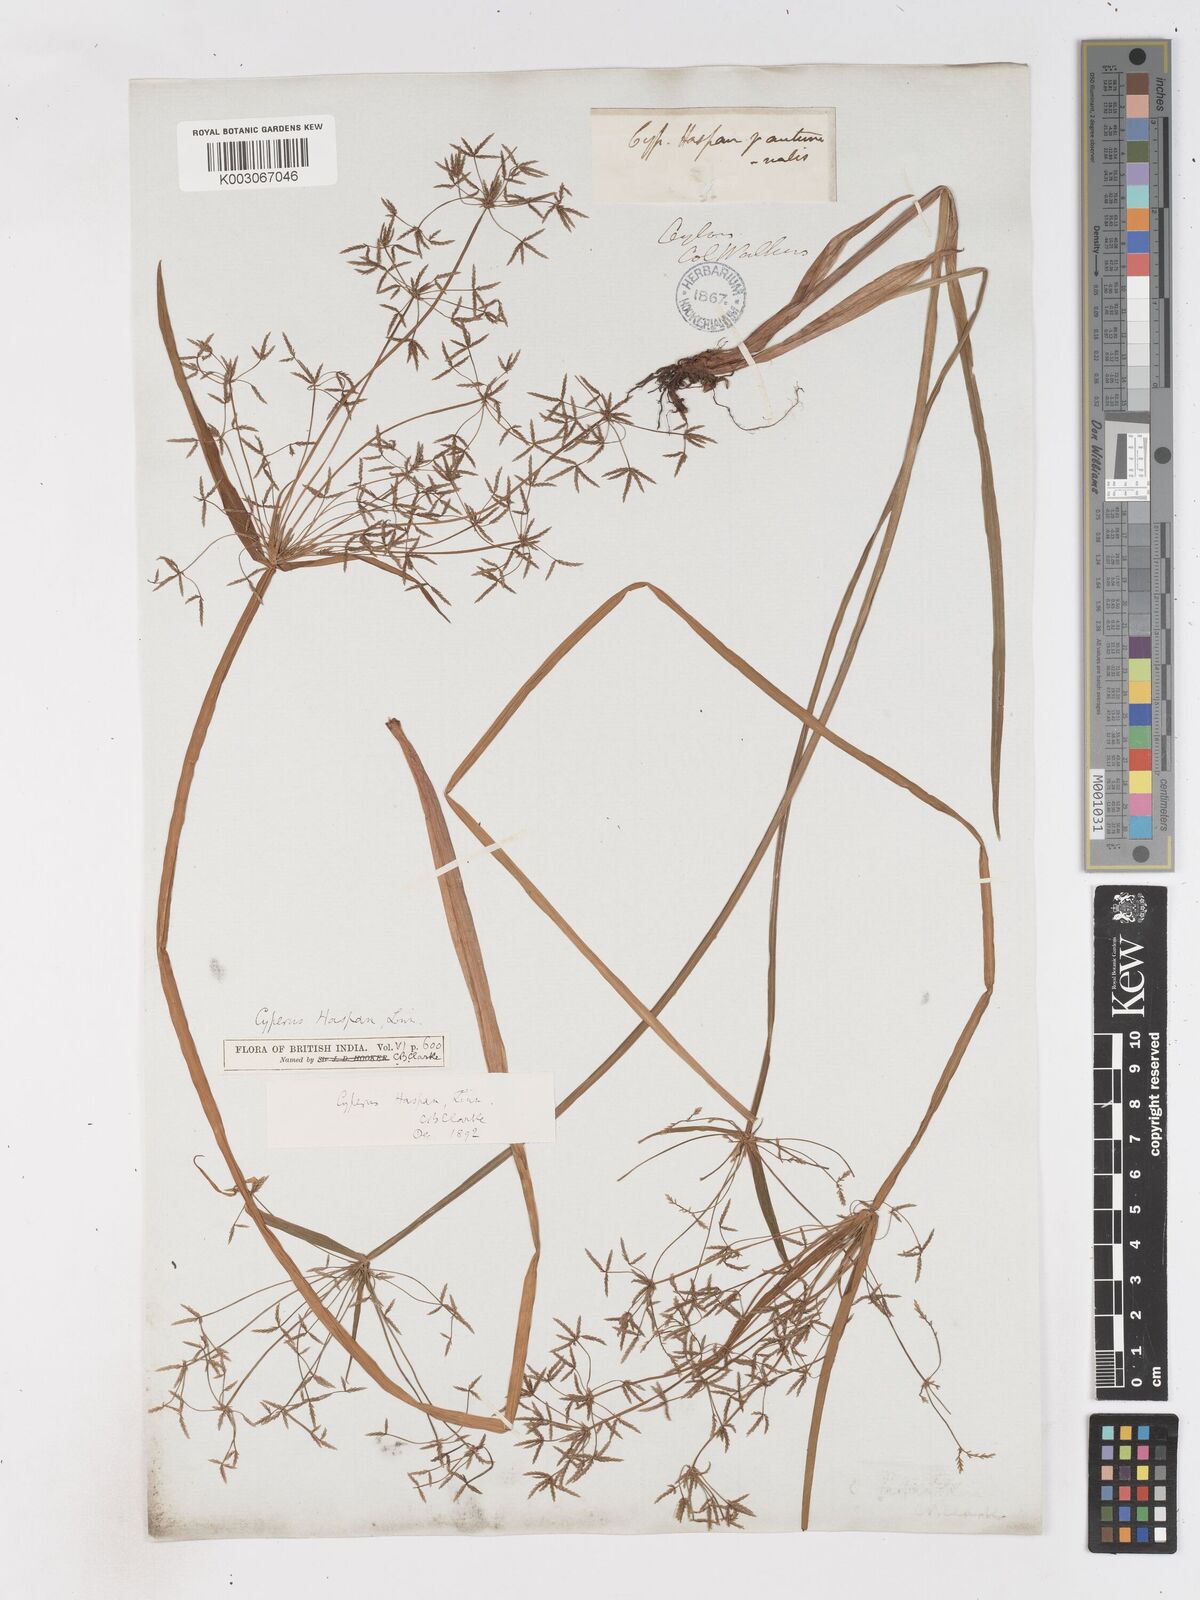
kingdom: Plantae
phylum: Tracheophyta
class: Liliopsida
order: Poales
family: Cyperaceae
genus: Cyperus
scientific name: Cyperus haspan
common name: Haspan flatsedge
